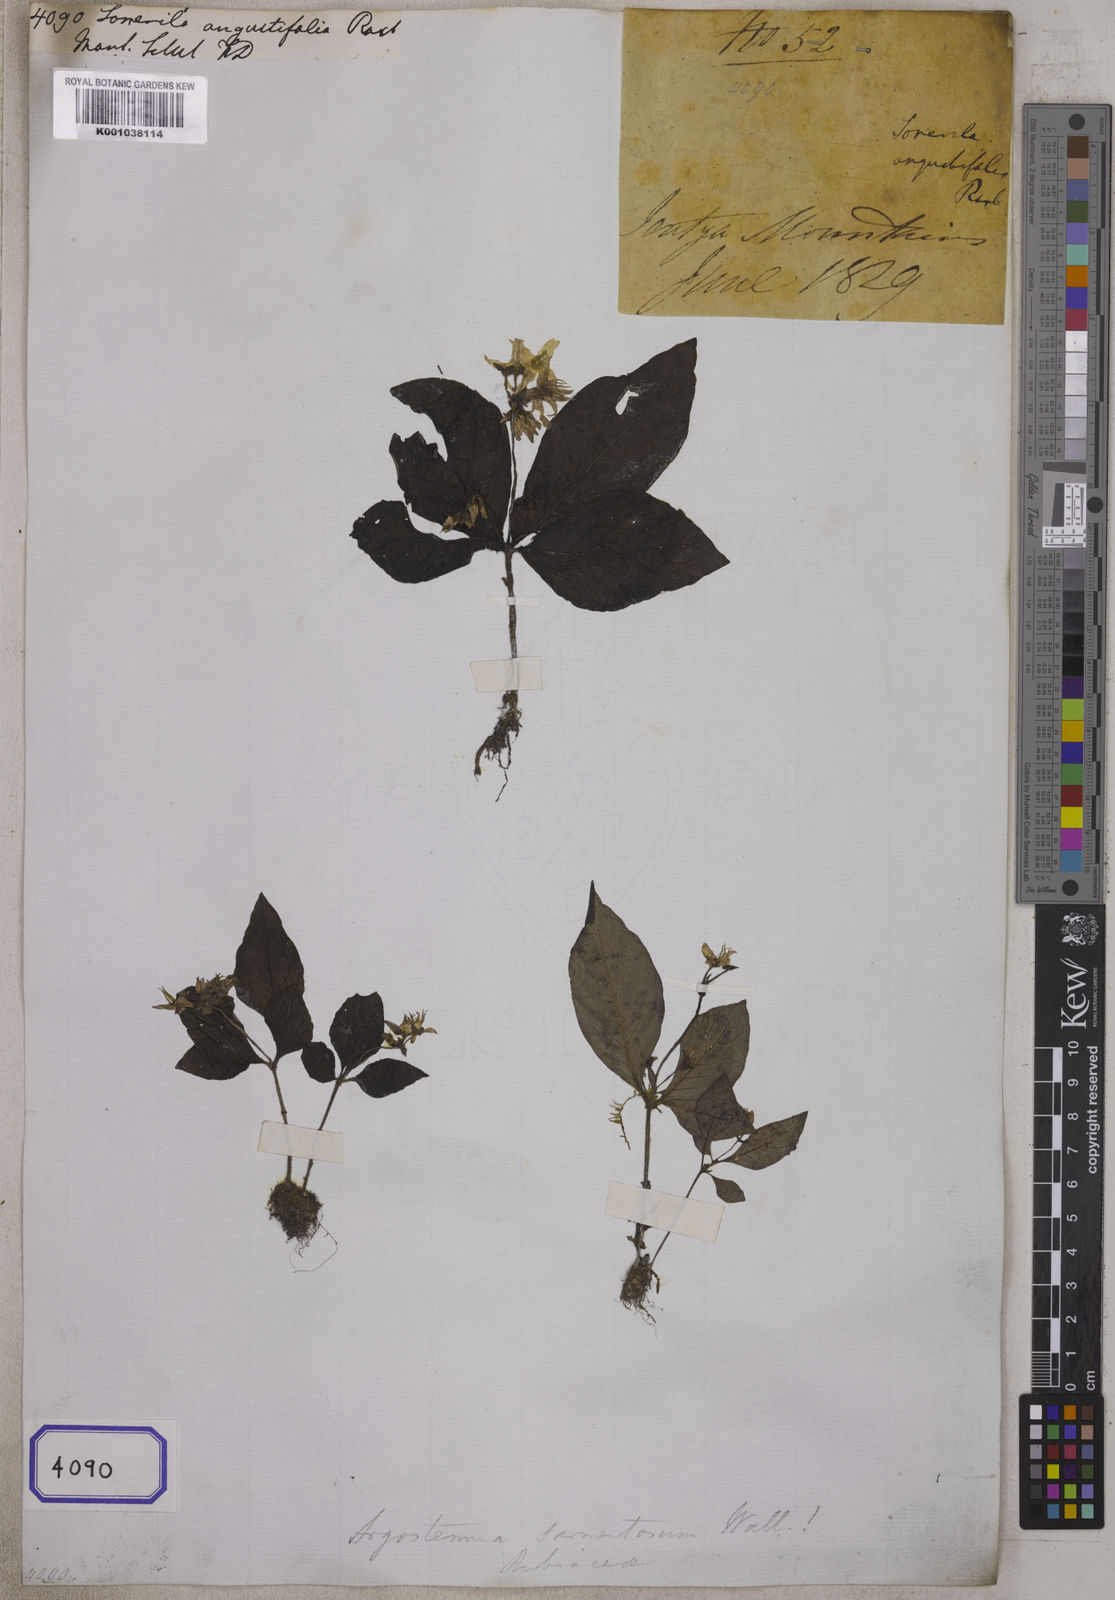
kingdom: Plantae
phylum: Tracheophyta
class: Magnoliopsida
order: Myrtales
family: Melastomataceae
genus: Sonerila
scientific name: Sonerila maculata
